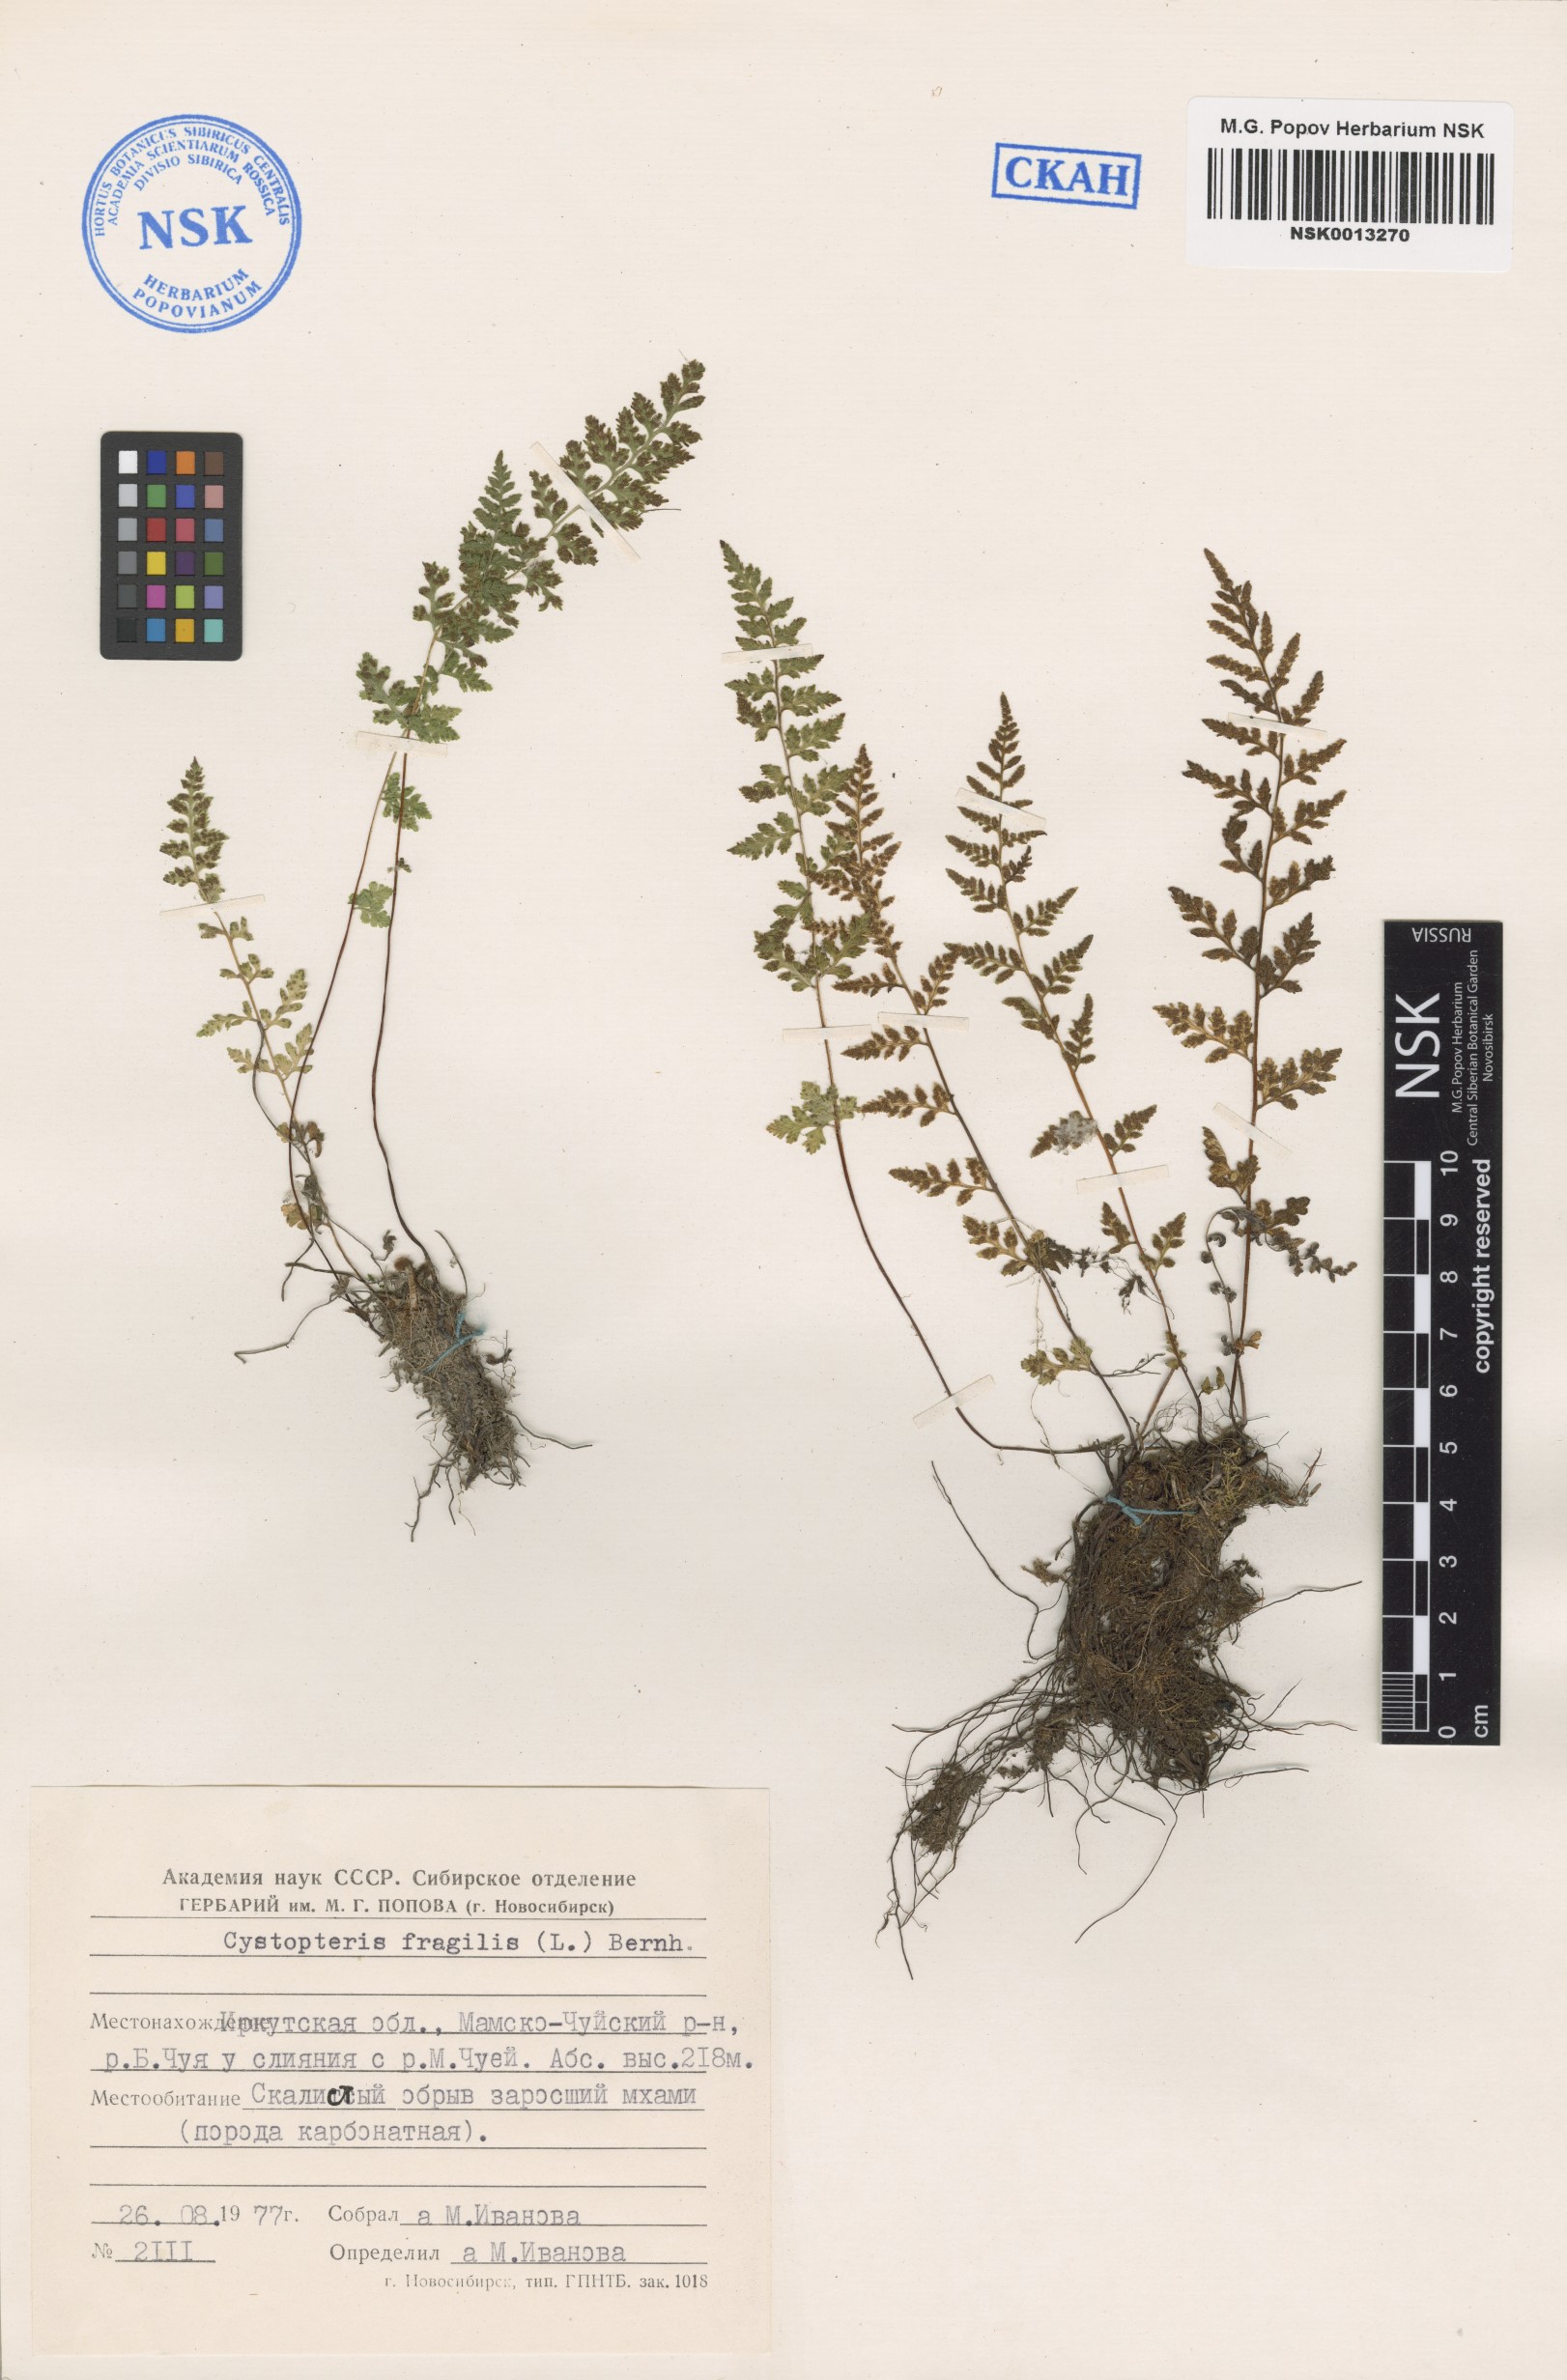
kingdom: Plantae
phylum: Tracheophyta
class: Polypodiopsida
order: Polypodiales
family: Cystopteridaceae
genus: Cystopteris
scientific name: Cystopteris fragilis
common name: Brittle bladder fern
